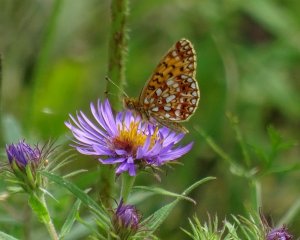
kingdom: Animalia
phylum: Arthropoda
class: Insecta
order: Lepidoptera
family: Nymphalidae
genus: Boloria
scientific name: Boloria selene
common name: Silver-bordered Fritillary
